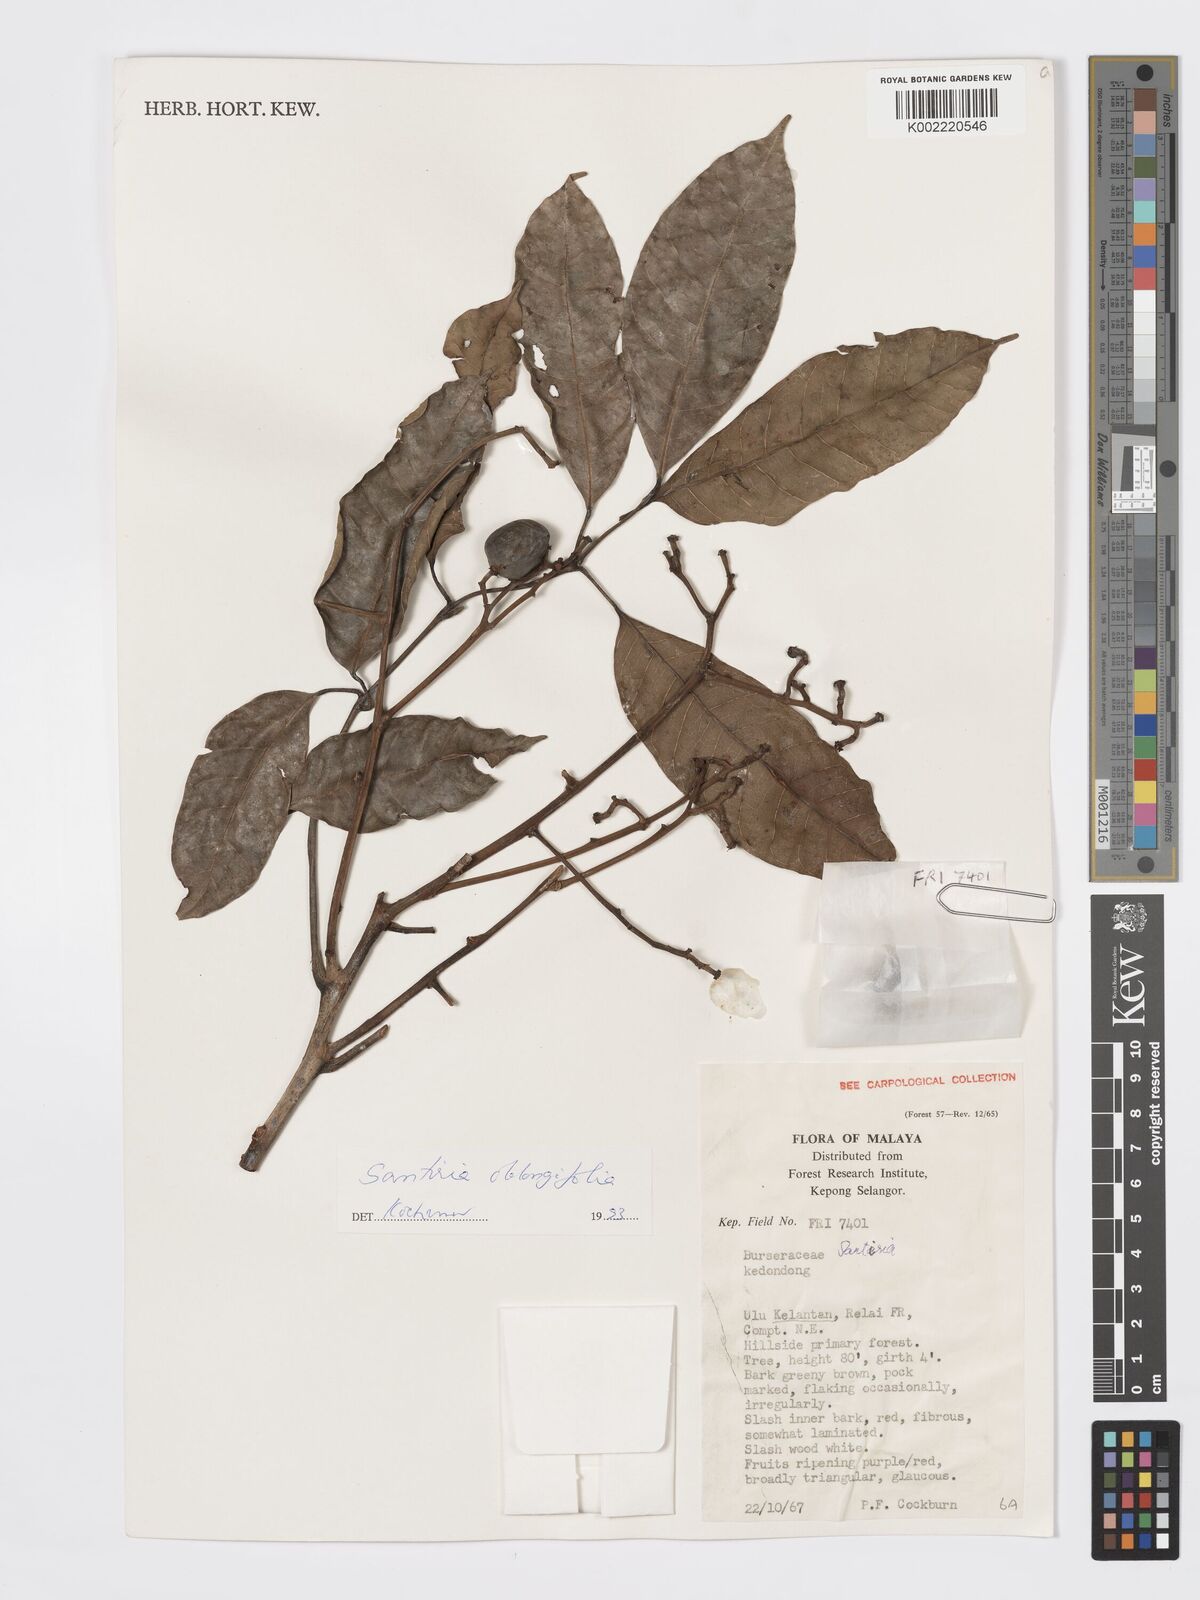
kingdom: Plantae
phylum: Tracheophyta
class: Magnoliopsida
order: Sapindales
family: Burseraceae
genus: Santiria
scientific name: Santiria oblongifolia
